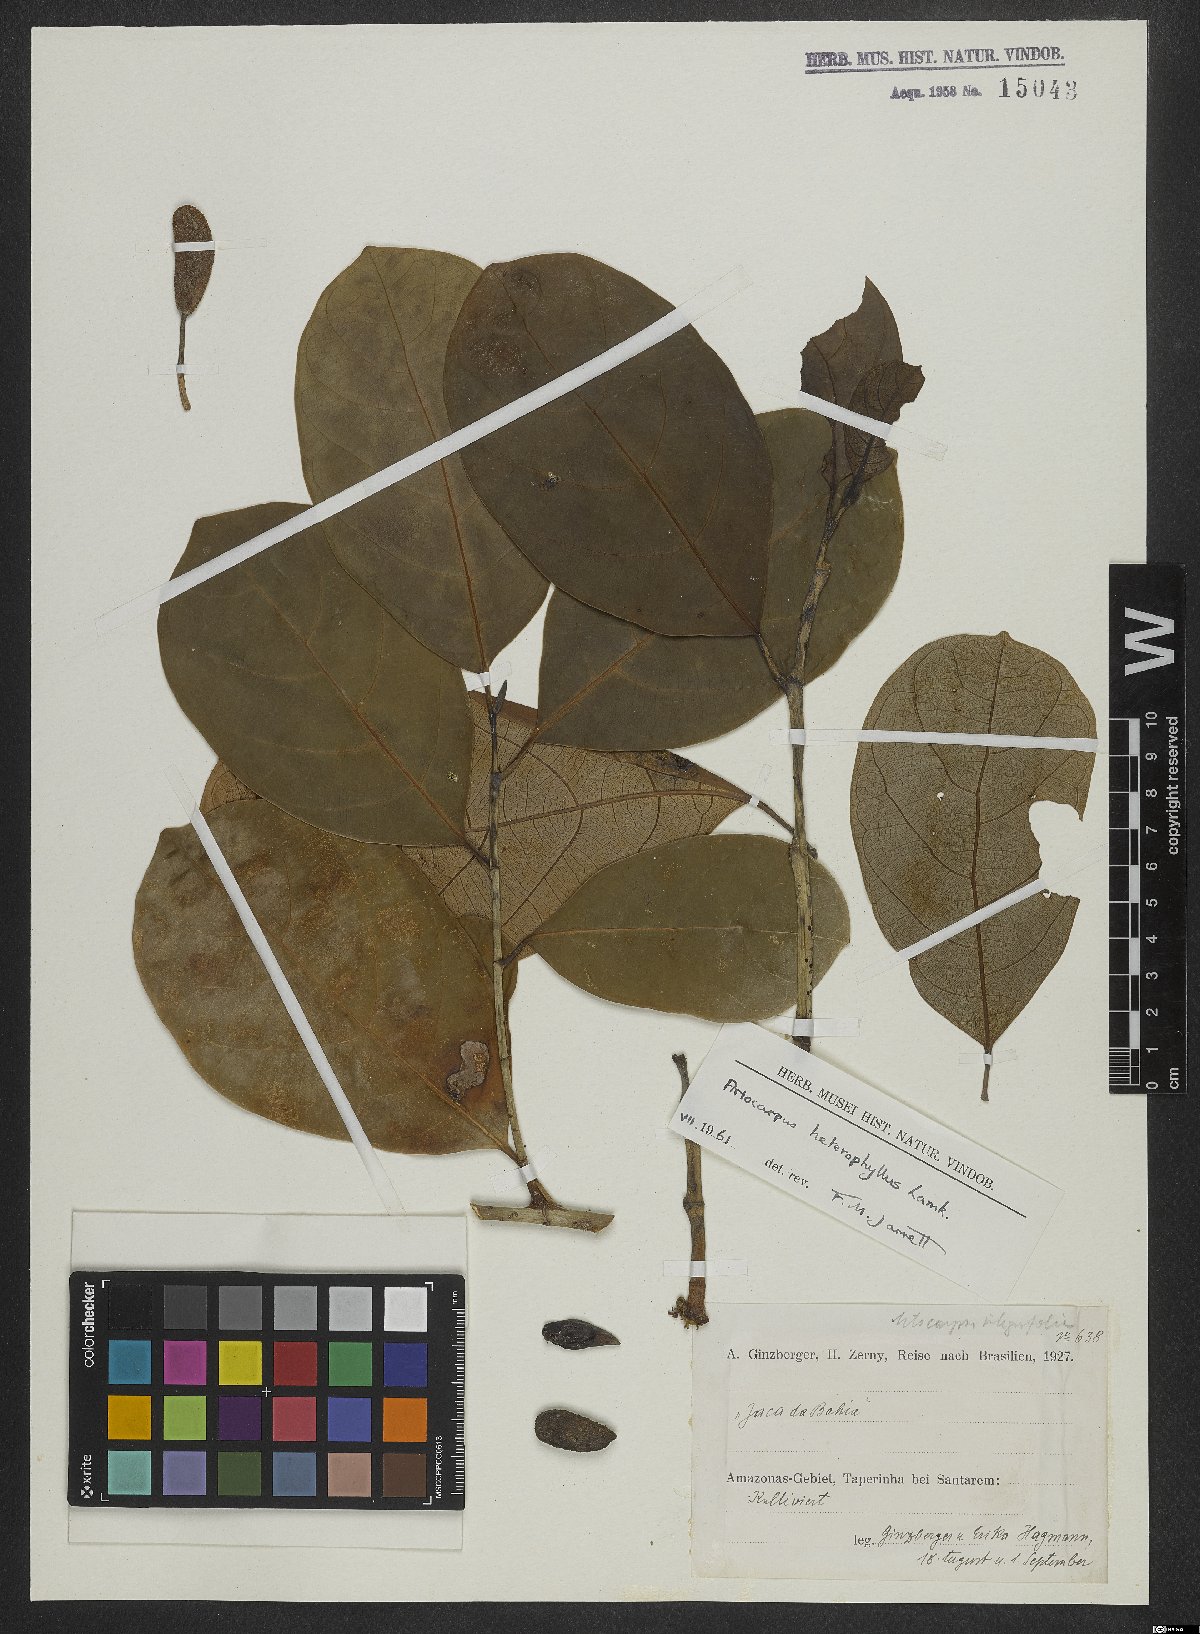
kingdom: Plantae
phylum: Tracheophyta
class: Magnoliopsida
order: Rosales
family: Moraceae
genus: Artocarpus
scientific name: Artocarpus heterophyllus
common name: Jackfruit
